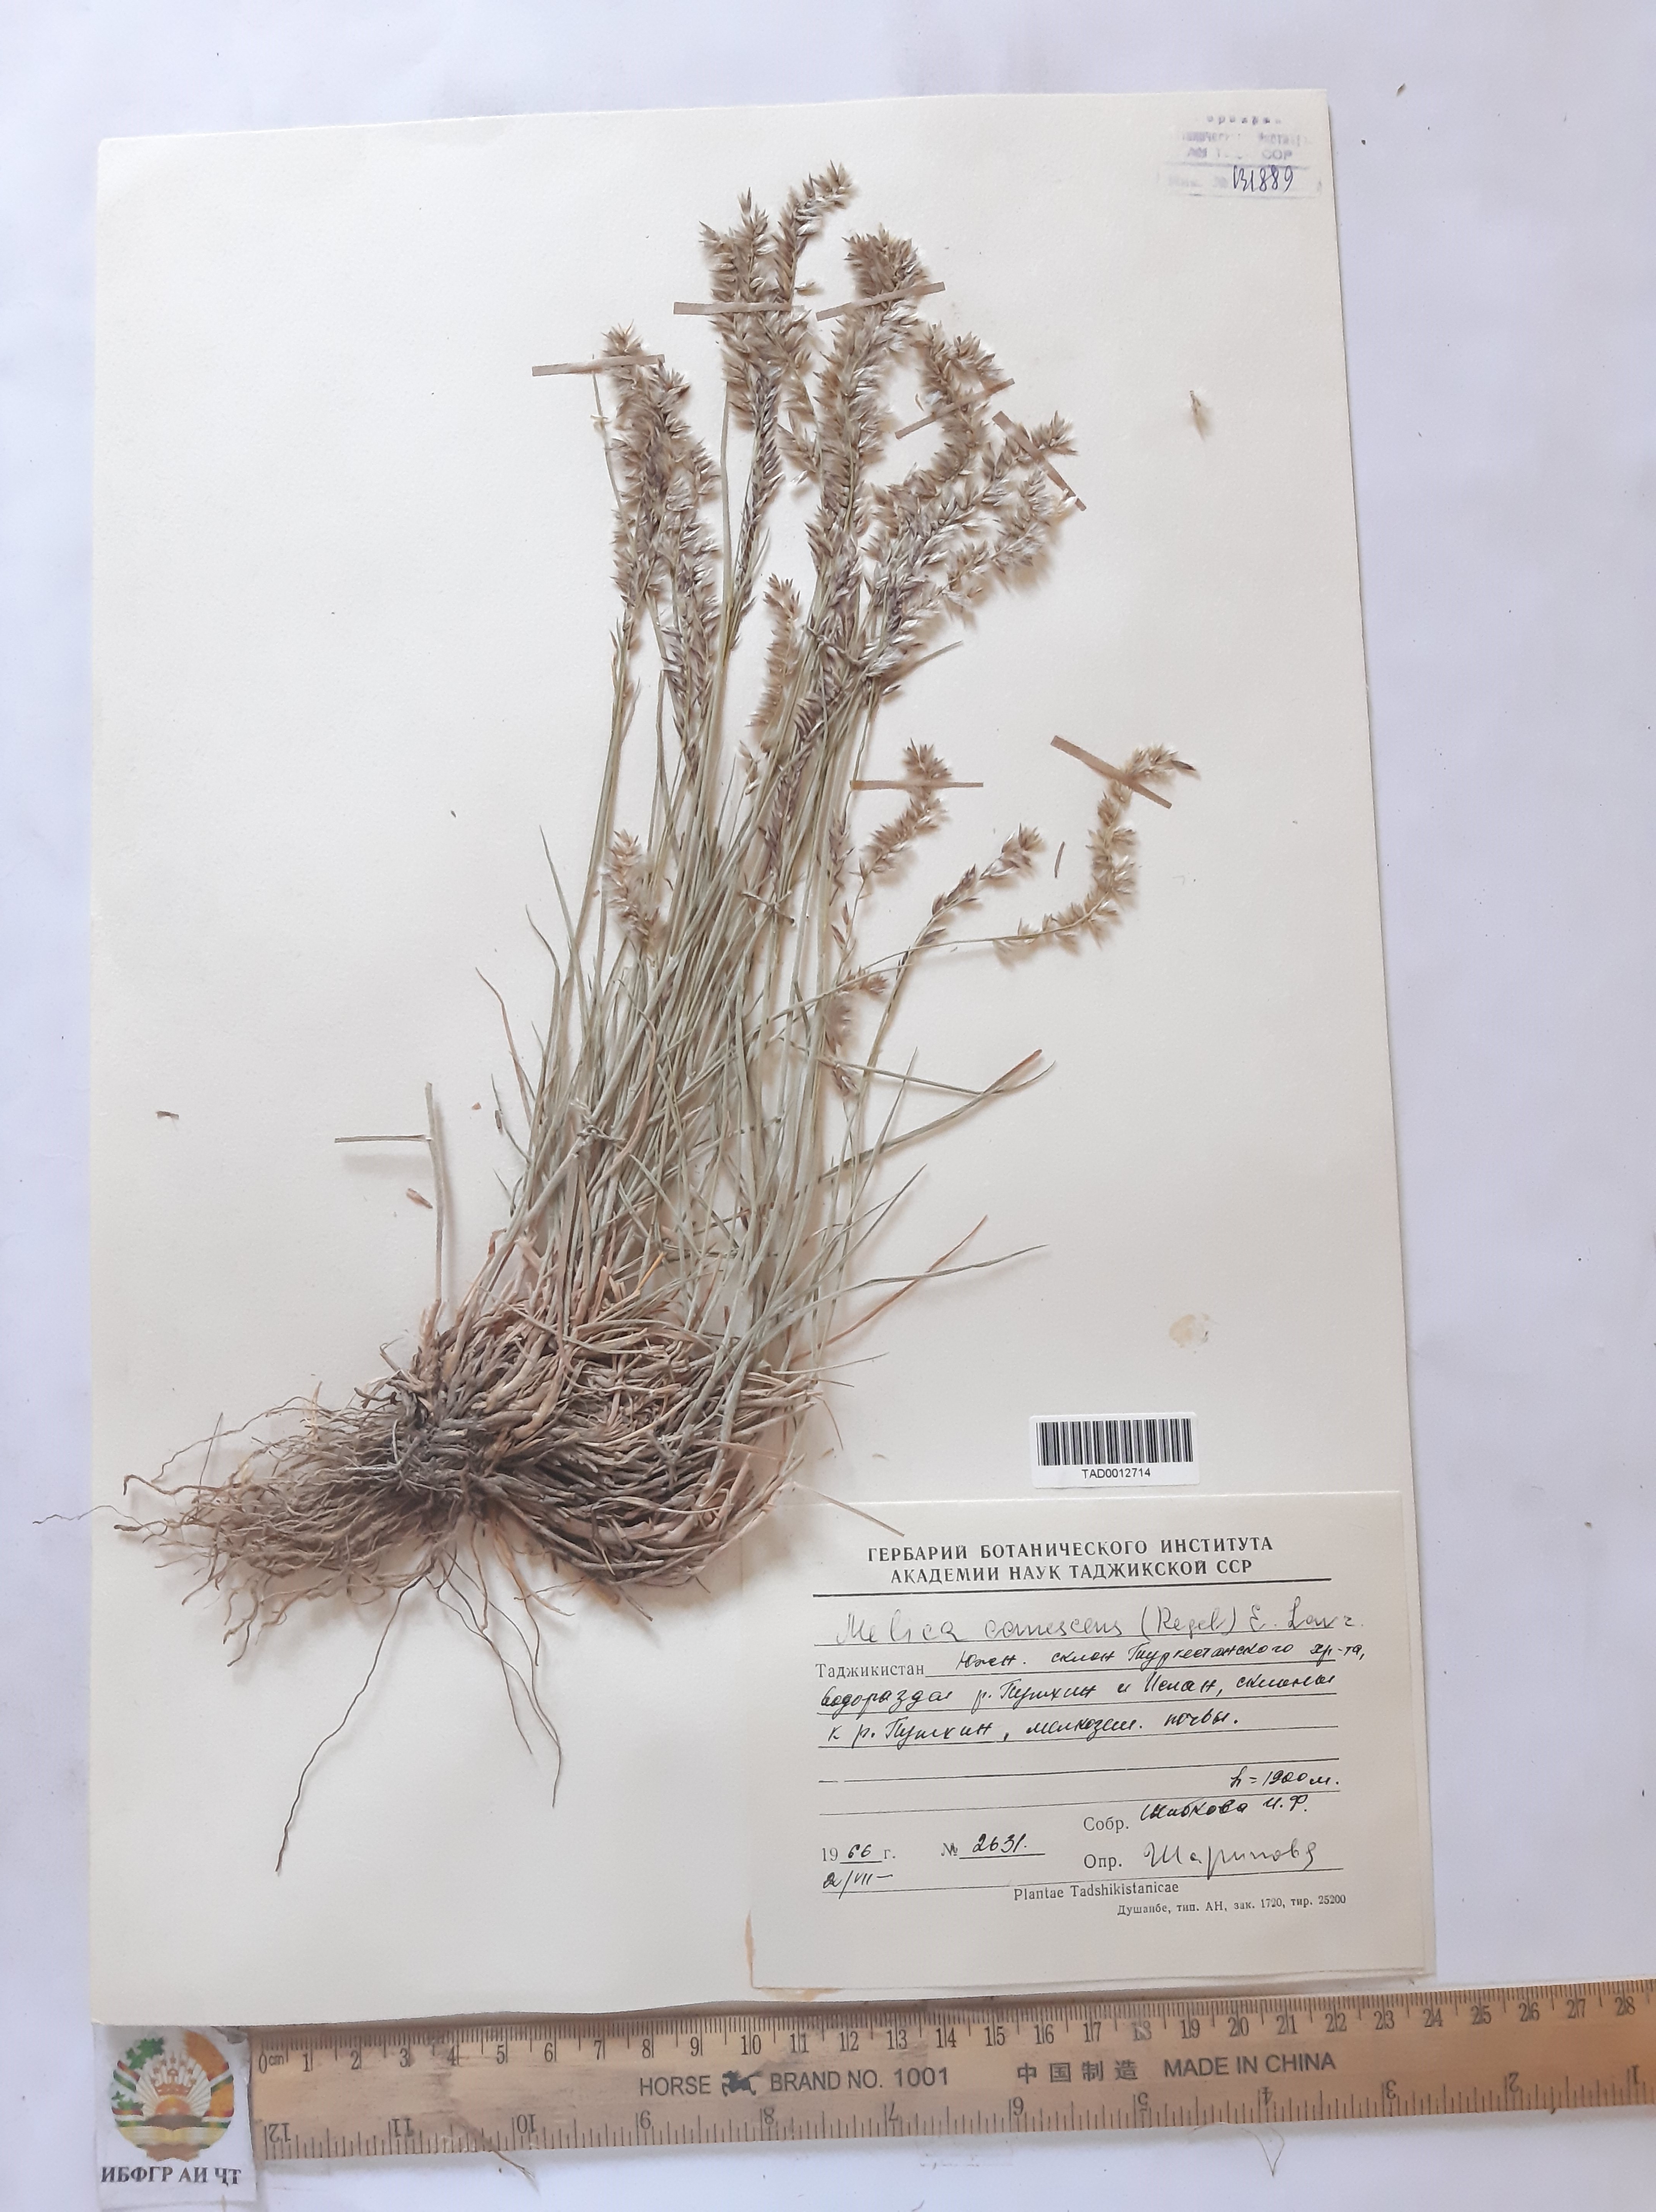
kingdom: Plantae
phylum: Tracheophyta
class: Liliopsida
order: Poales
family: Poaceae
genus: Melica
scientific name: Melica persica
